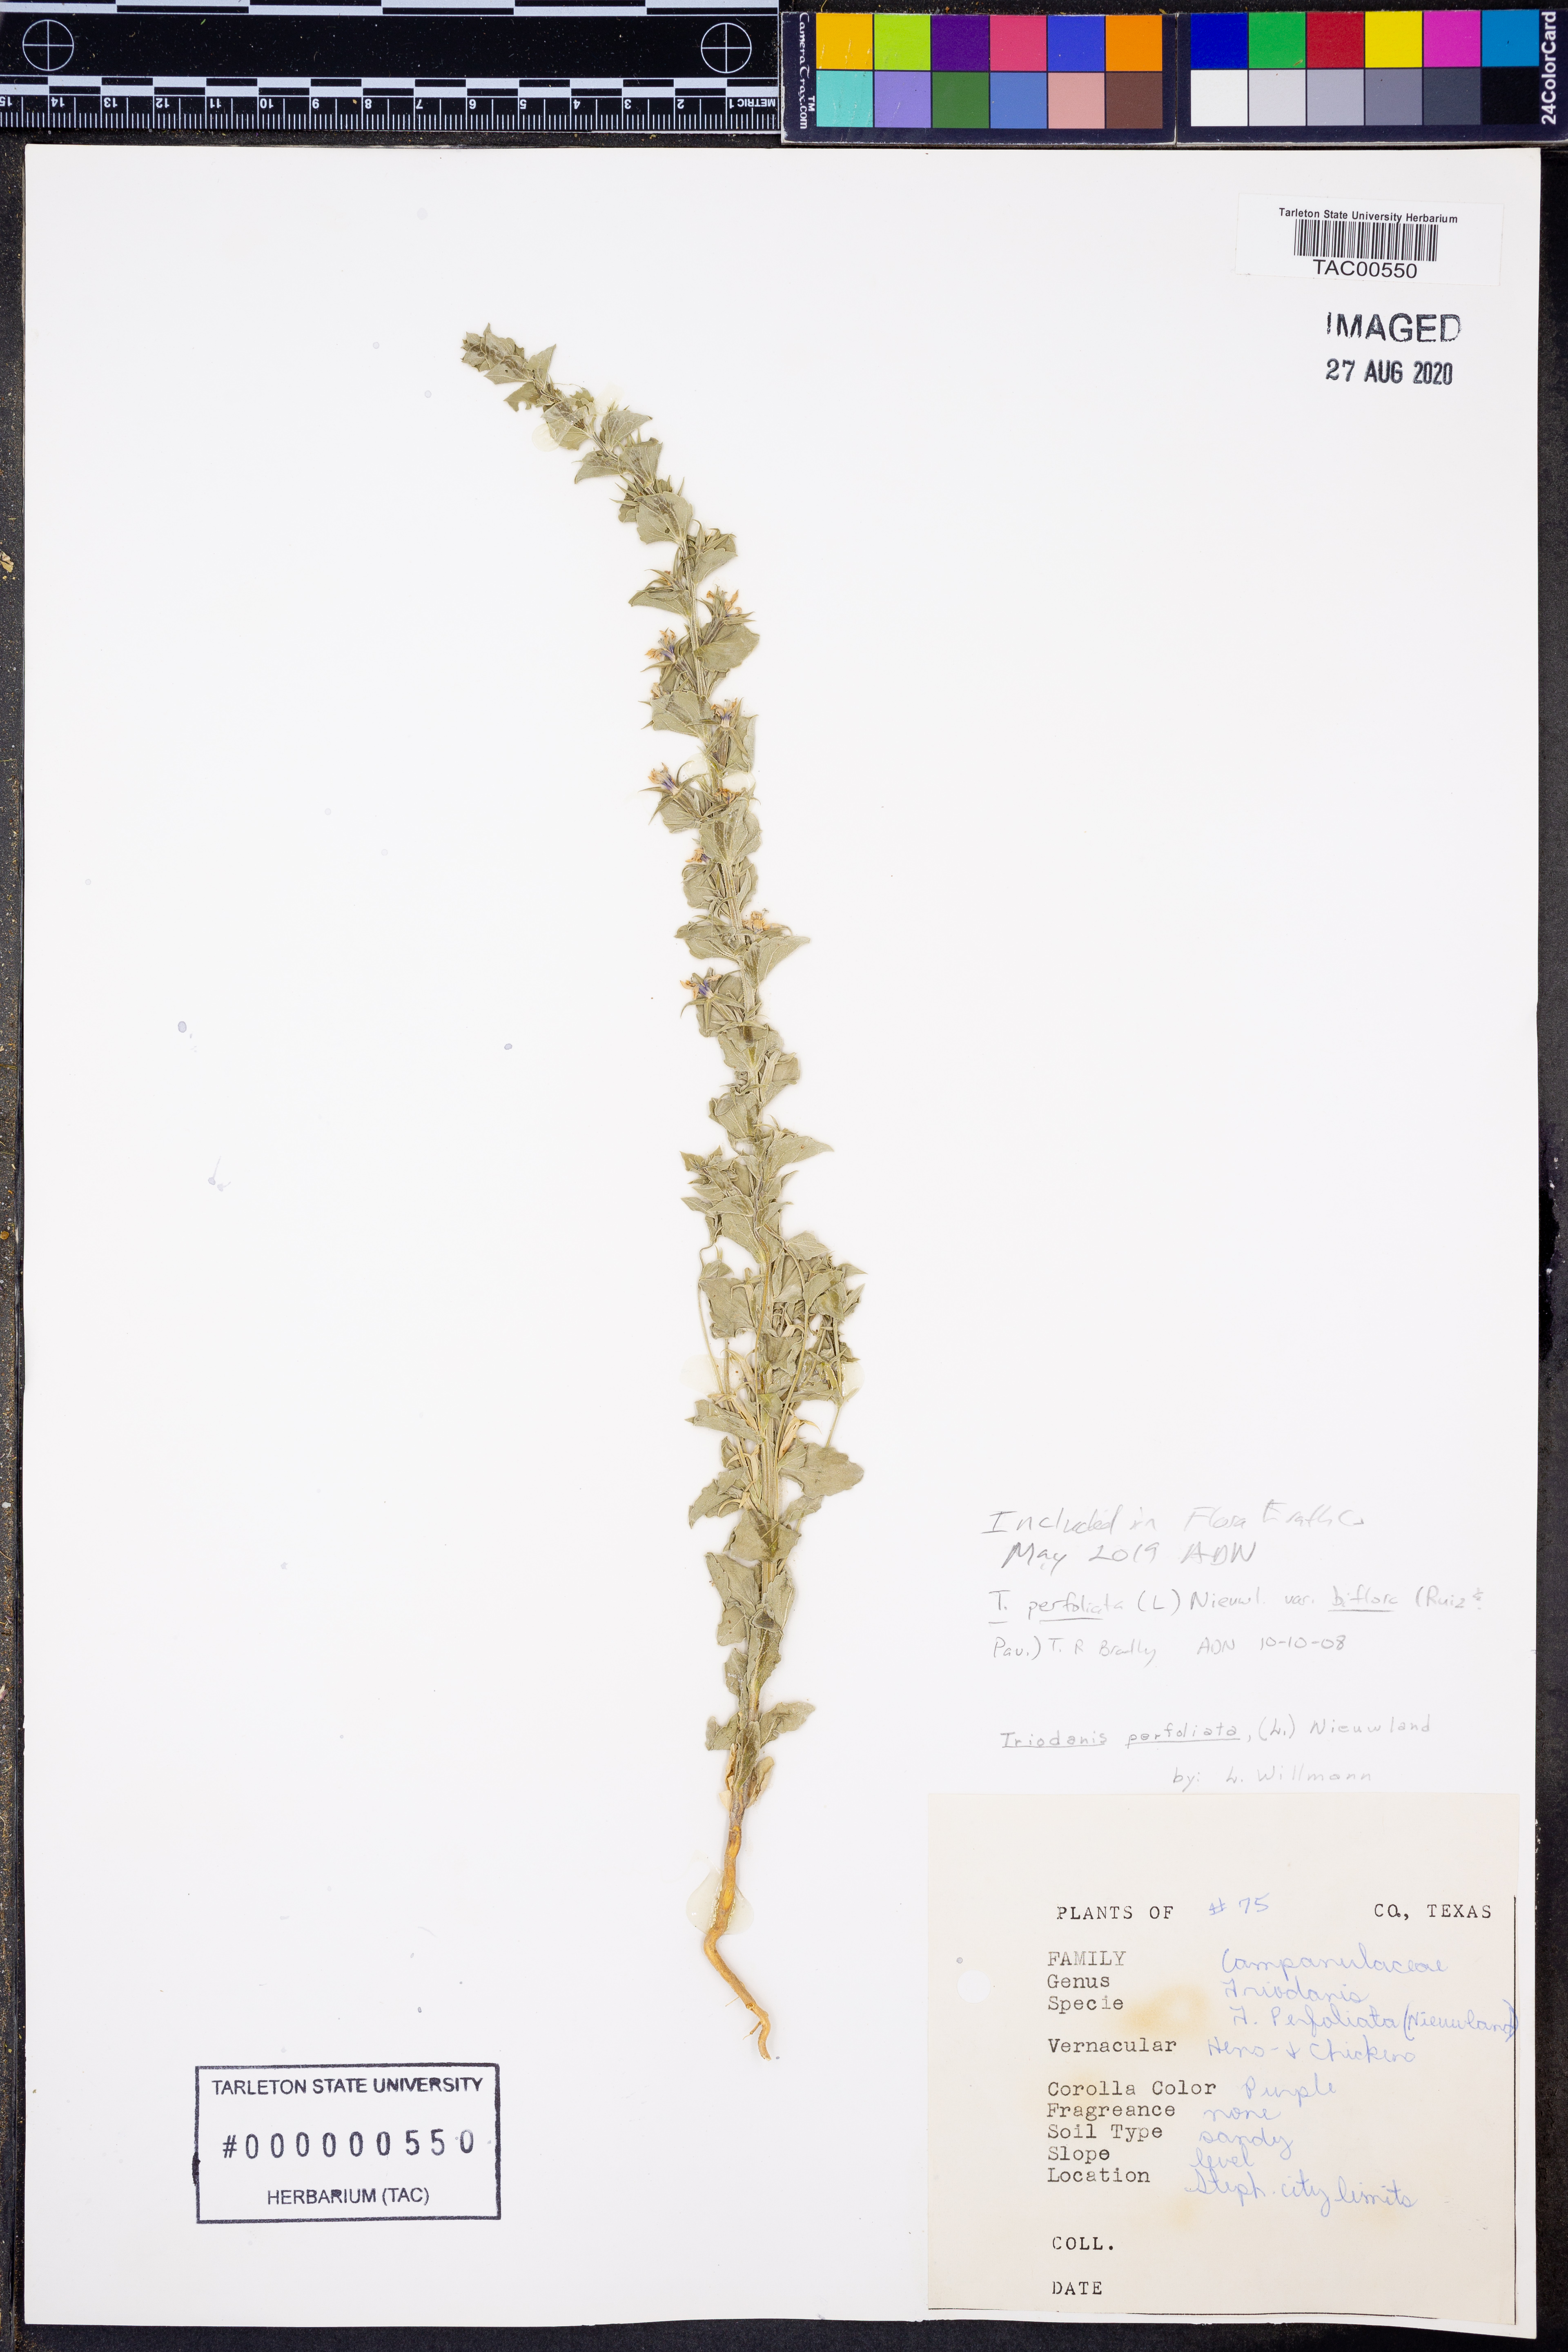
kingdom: Plantae
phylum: Tracheophyta
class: Magnoliopsida
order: Asterales
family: Campanulaceae
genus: Triodanis
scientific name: Triodanis perfoliata
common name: Clasping venus' looking-glass
